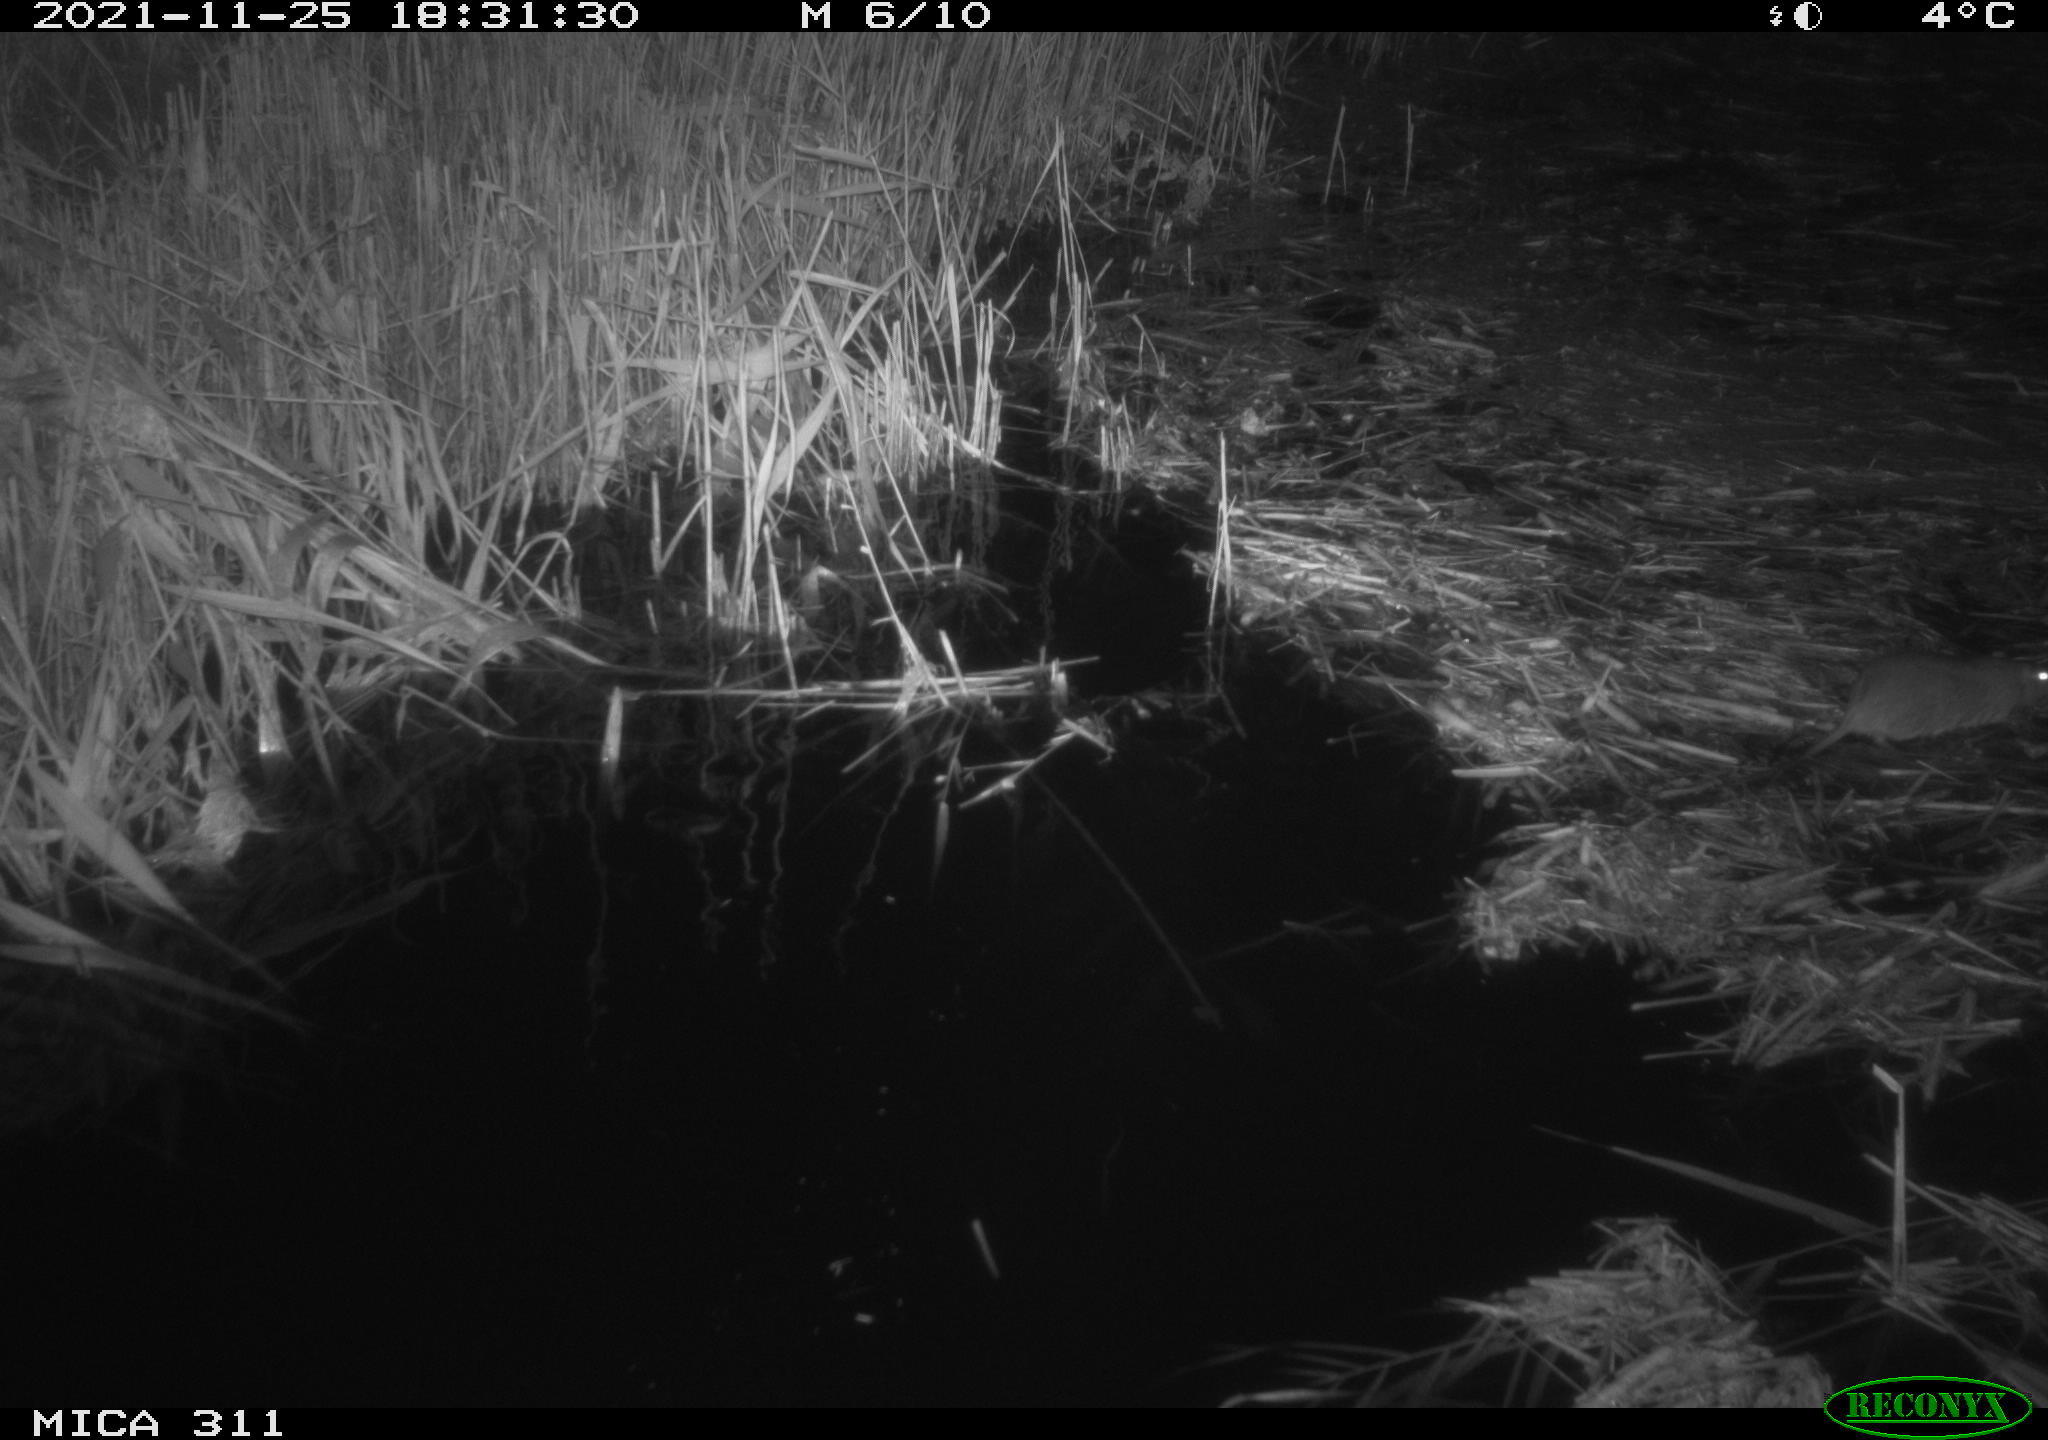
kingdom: Animalia
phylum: Chordata
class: Mammalia
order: Rodentia
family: Muridae
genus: Rattus
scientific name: Rattus norvegicus
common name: Brown rat
